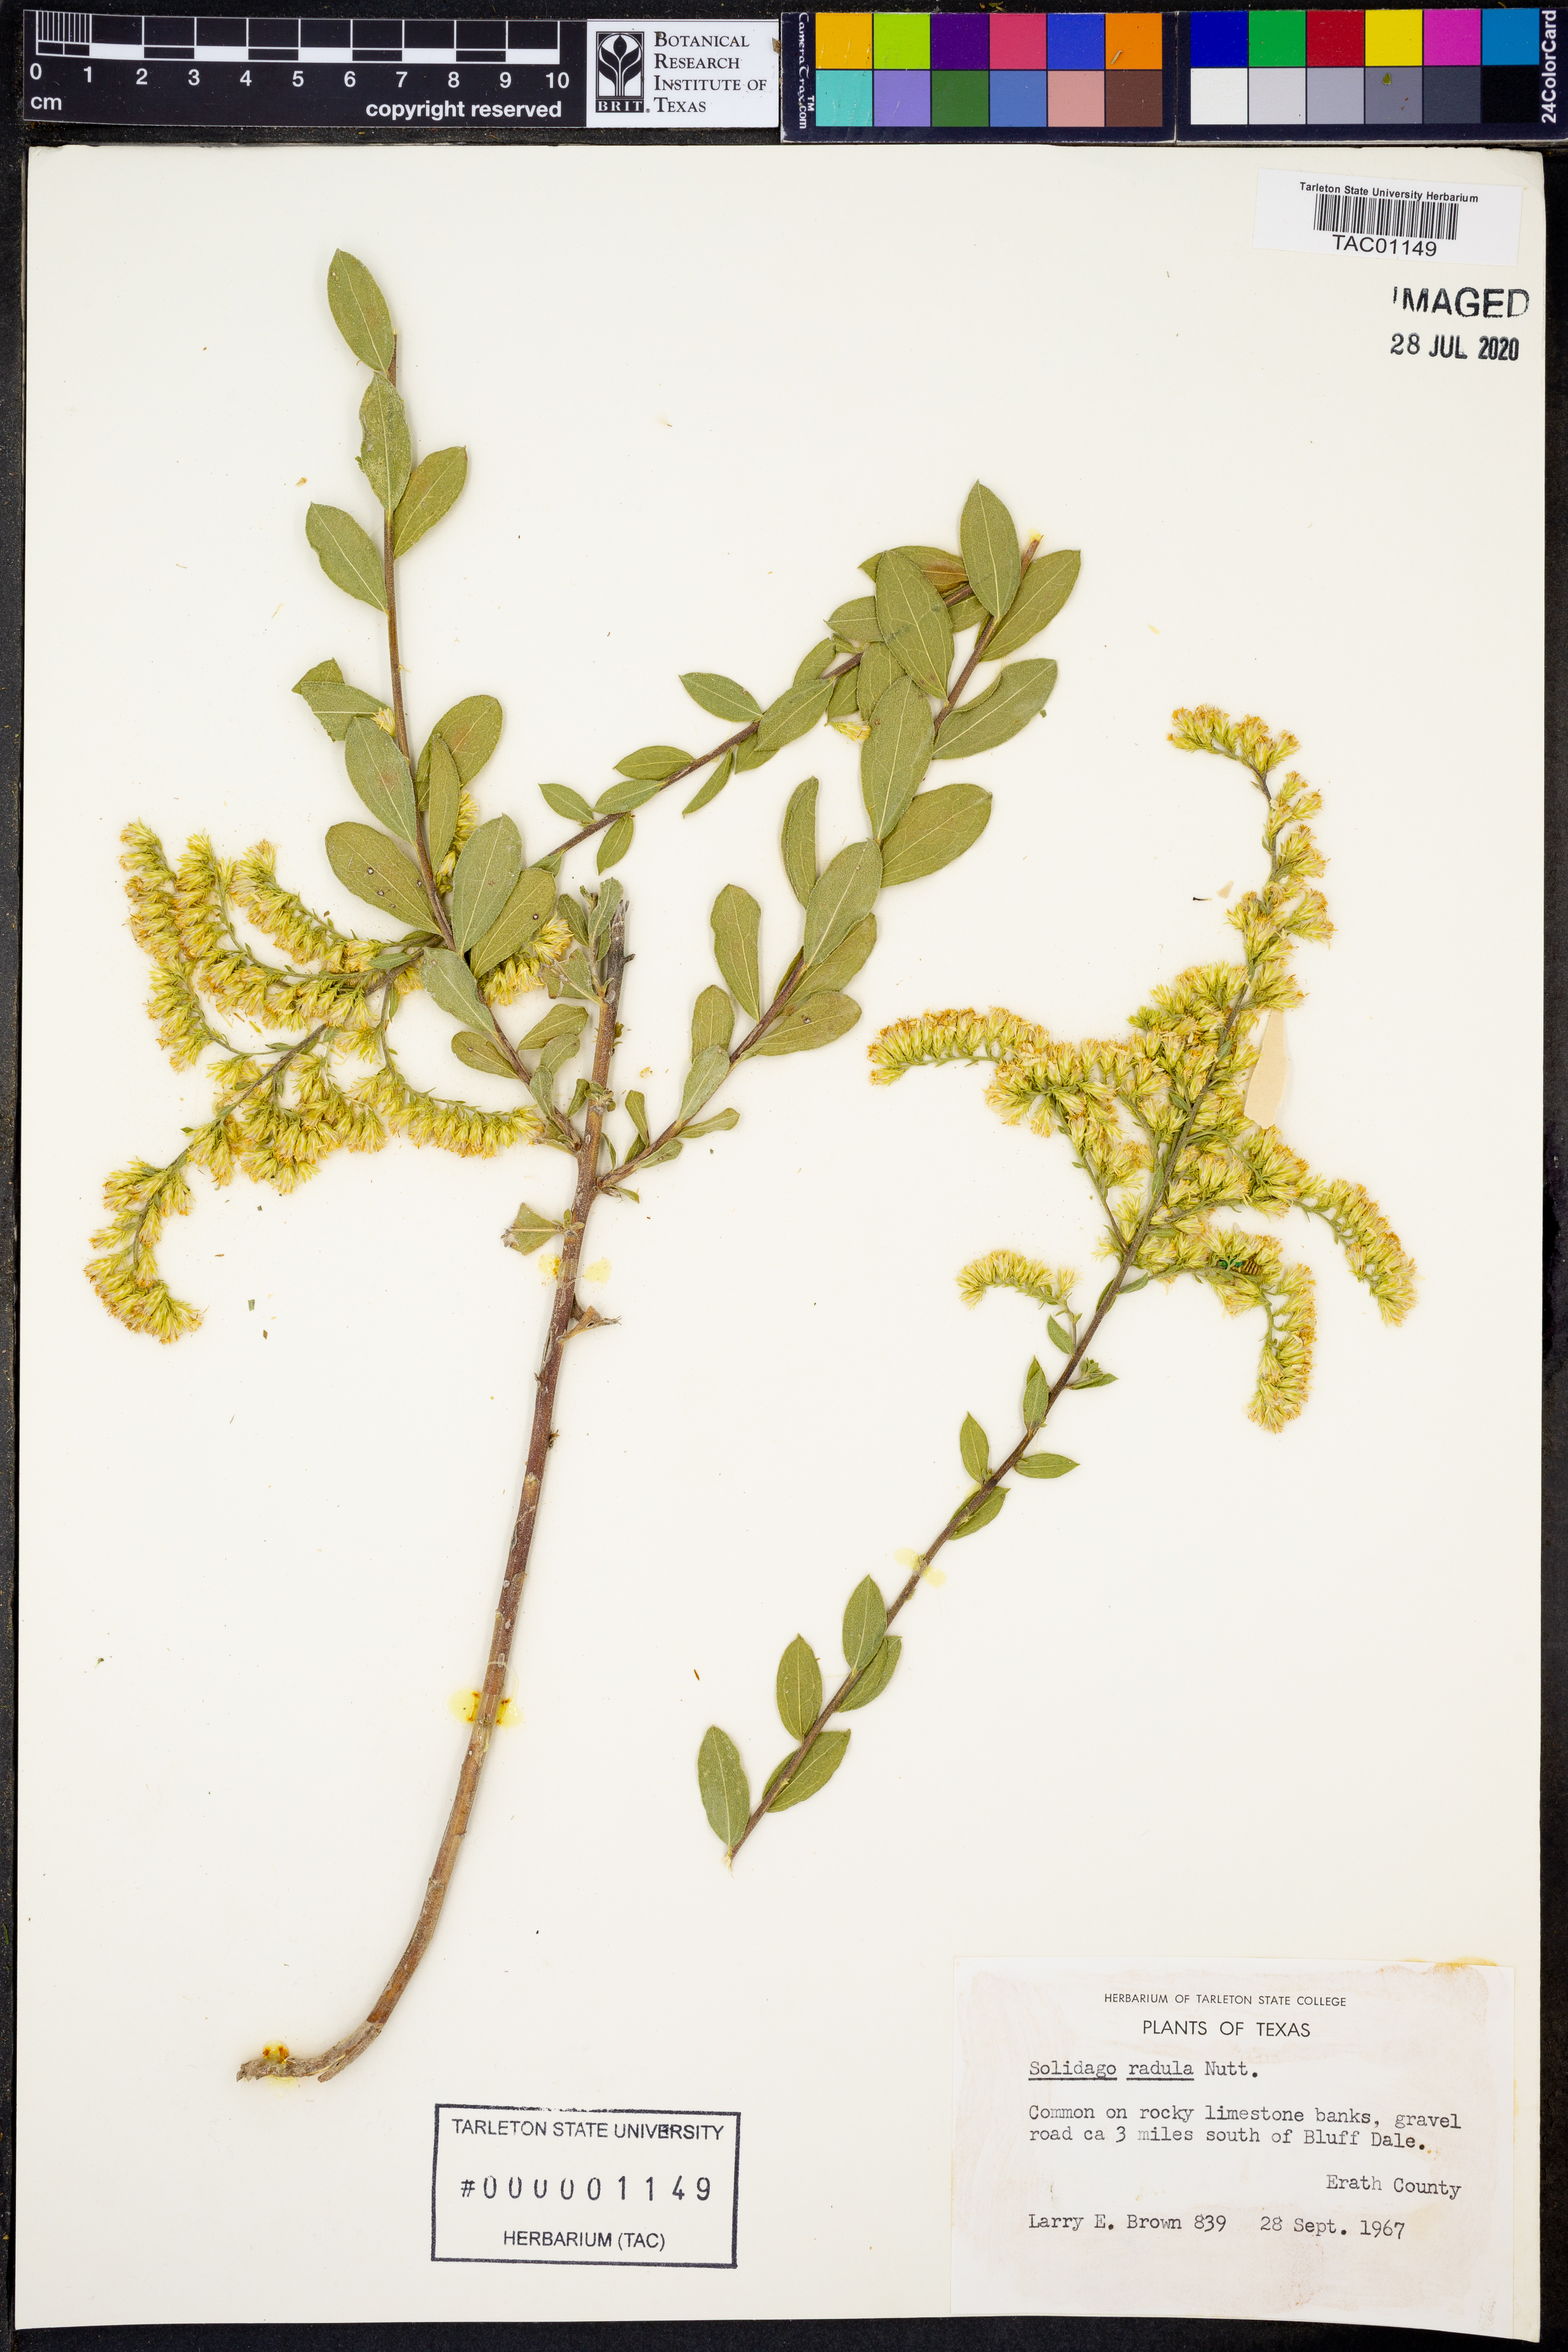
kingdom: Plantae
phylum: Tracheophyta
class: Magnoliopsida
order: Asterales
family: Asteraceae
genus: Solidago
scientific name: Solidago radula
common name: Western rough goldenrod
